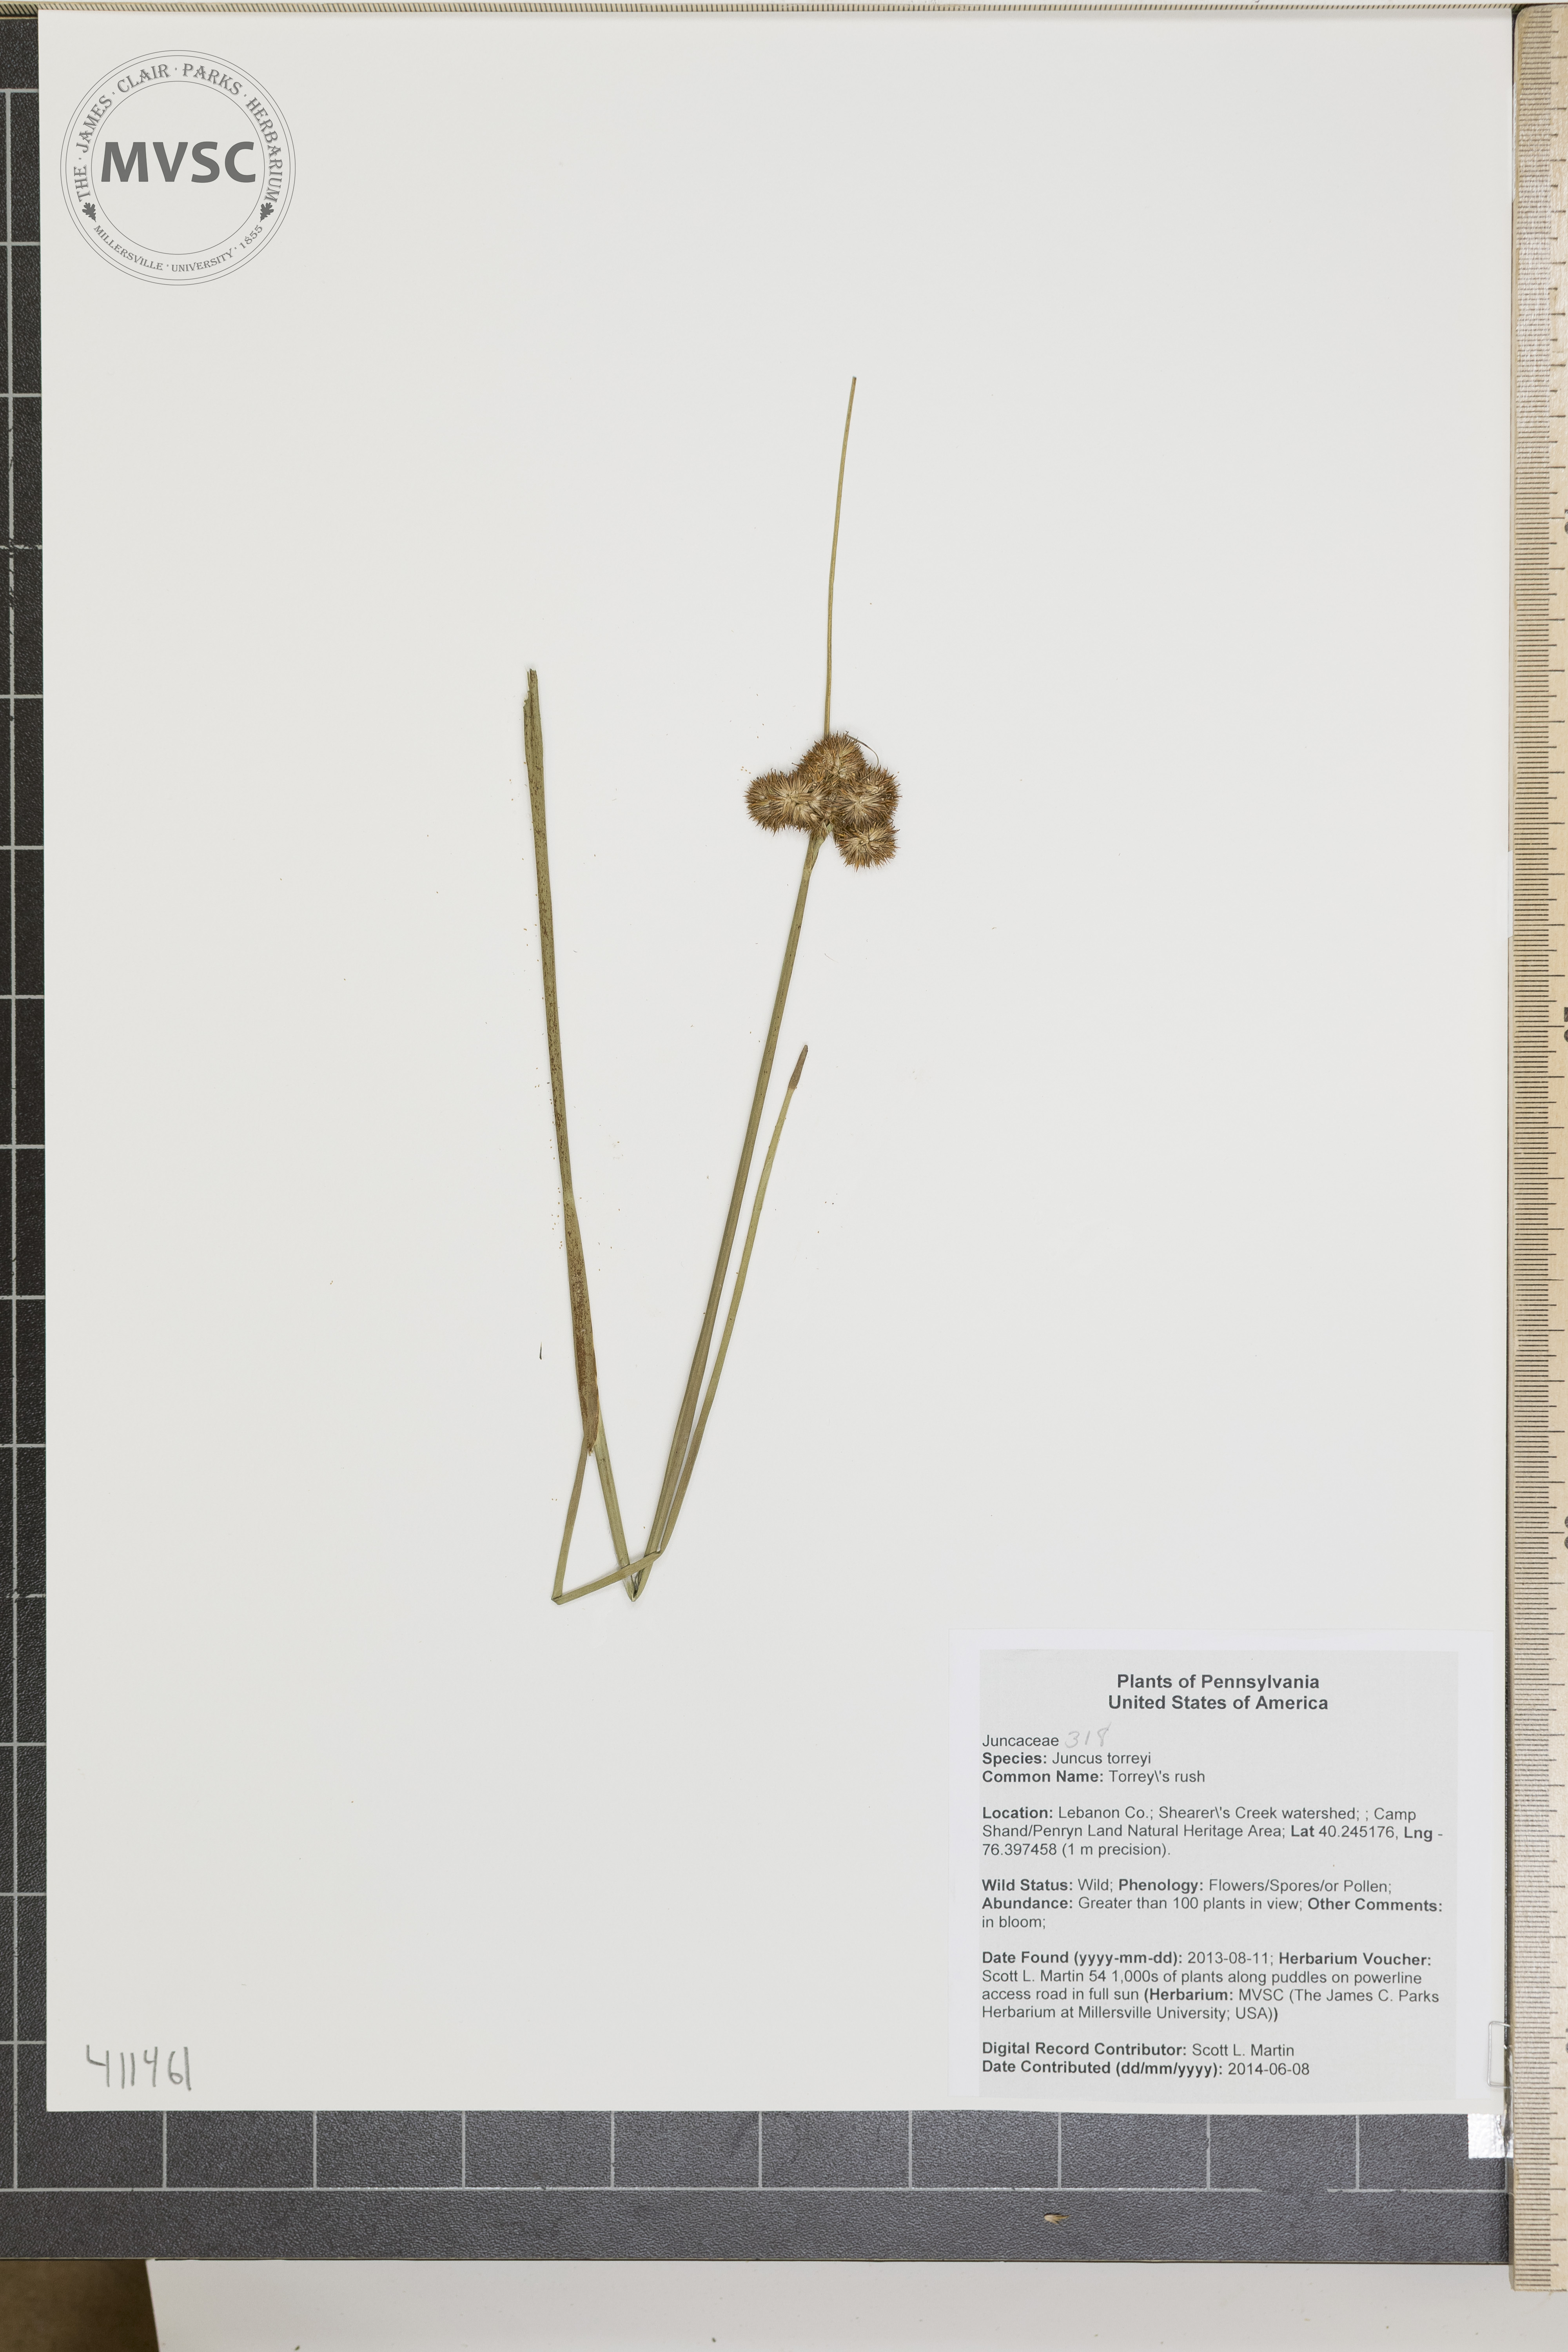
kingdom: Plantae
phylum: Tracheophyta
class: Liliopsida
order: Poales
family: Juncaceae
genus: Juncus
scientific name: Juncus torreyi
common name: Torrey's rush
